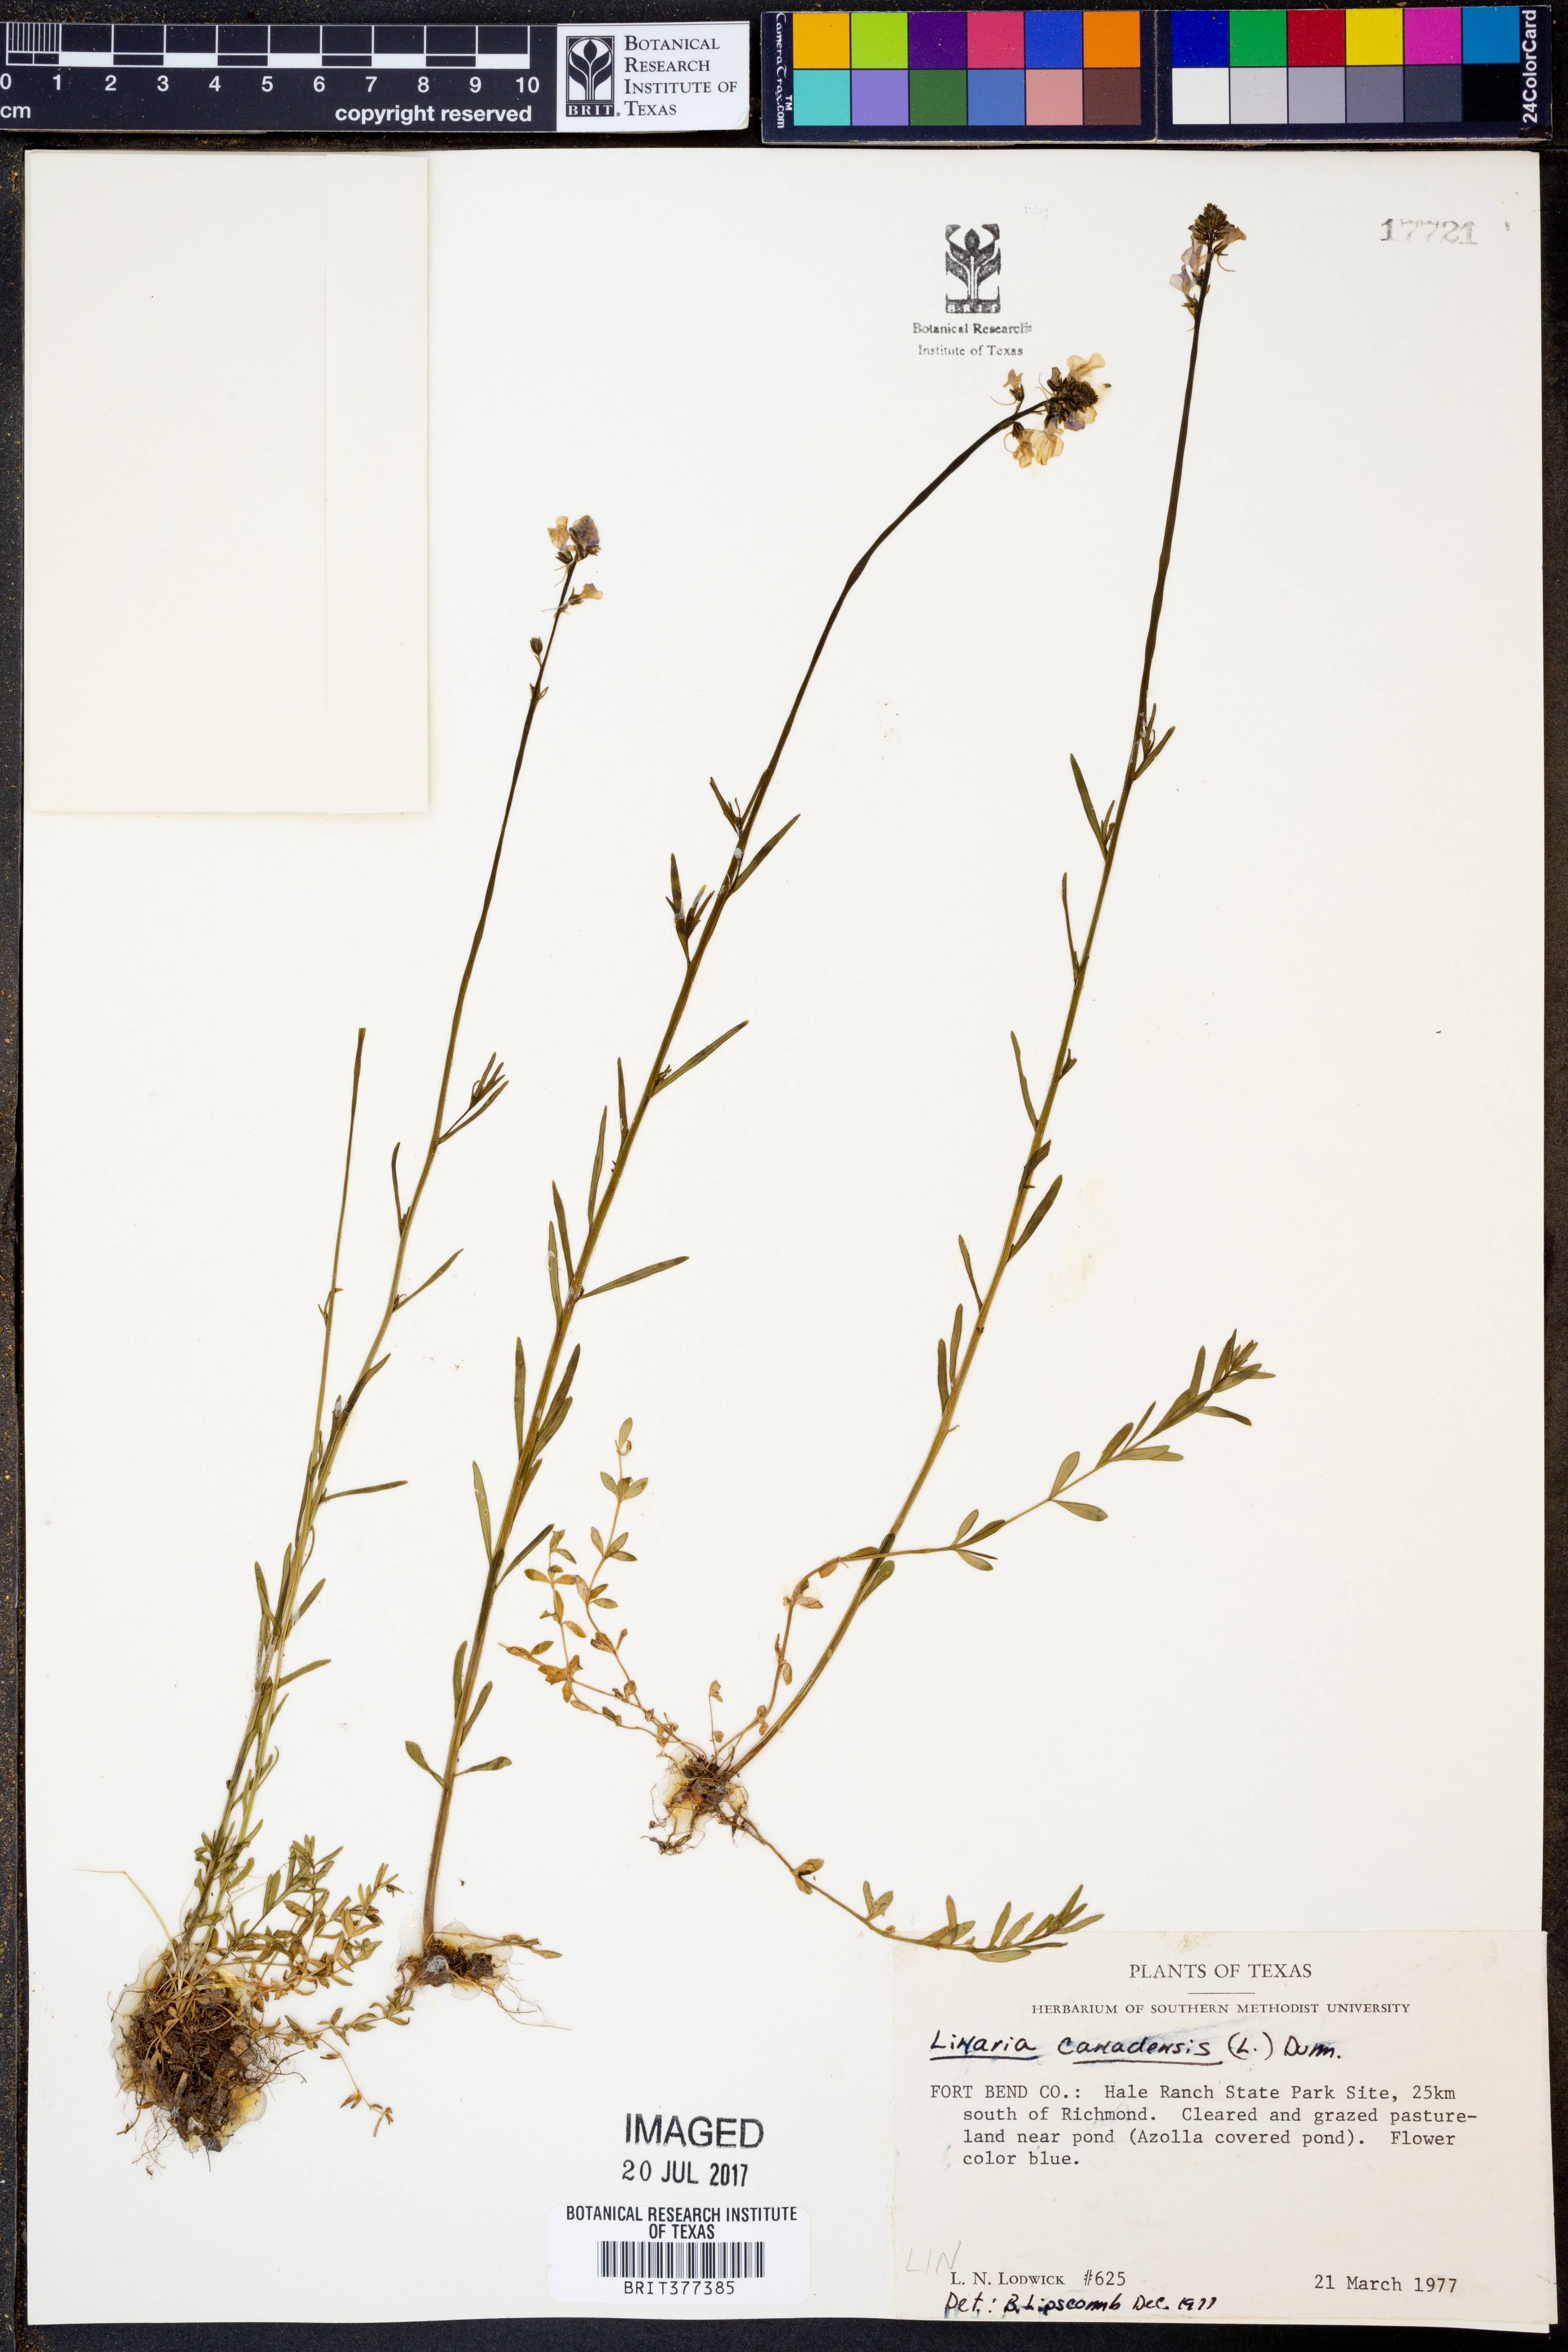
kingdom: Plantae
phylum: Tracheophyta
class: Magnoliopsida
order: Lamiales
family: Plantaginaceae
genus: Nuttallanthus
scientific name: Nuttallanthus canadensis
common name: Blue toadflax
